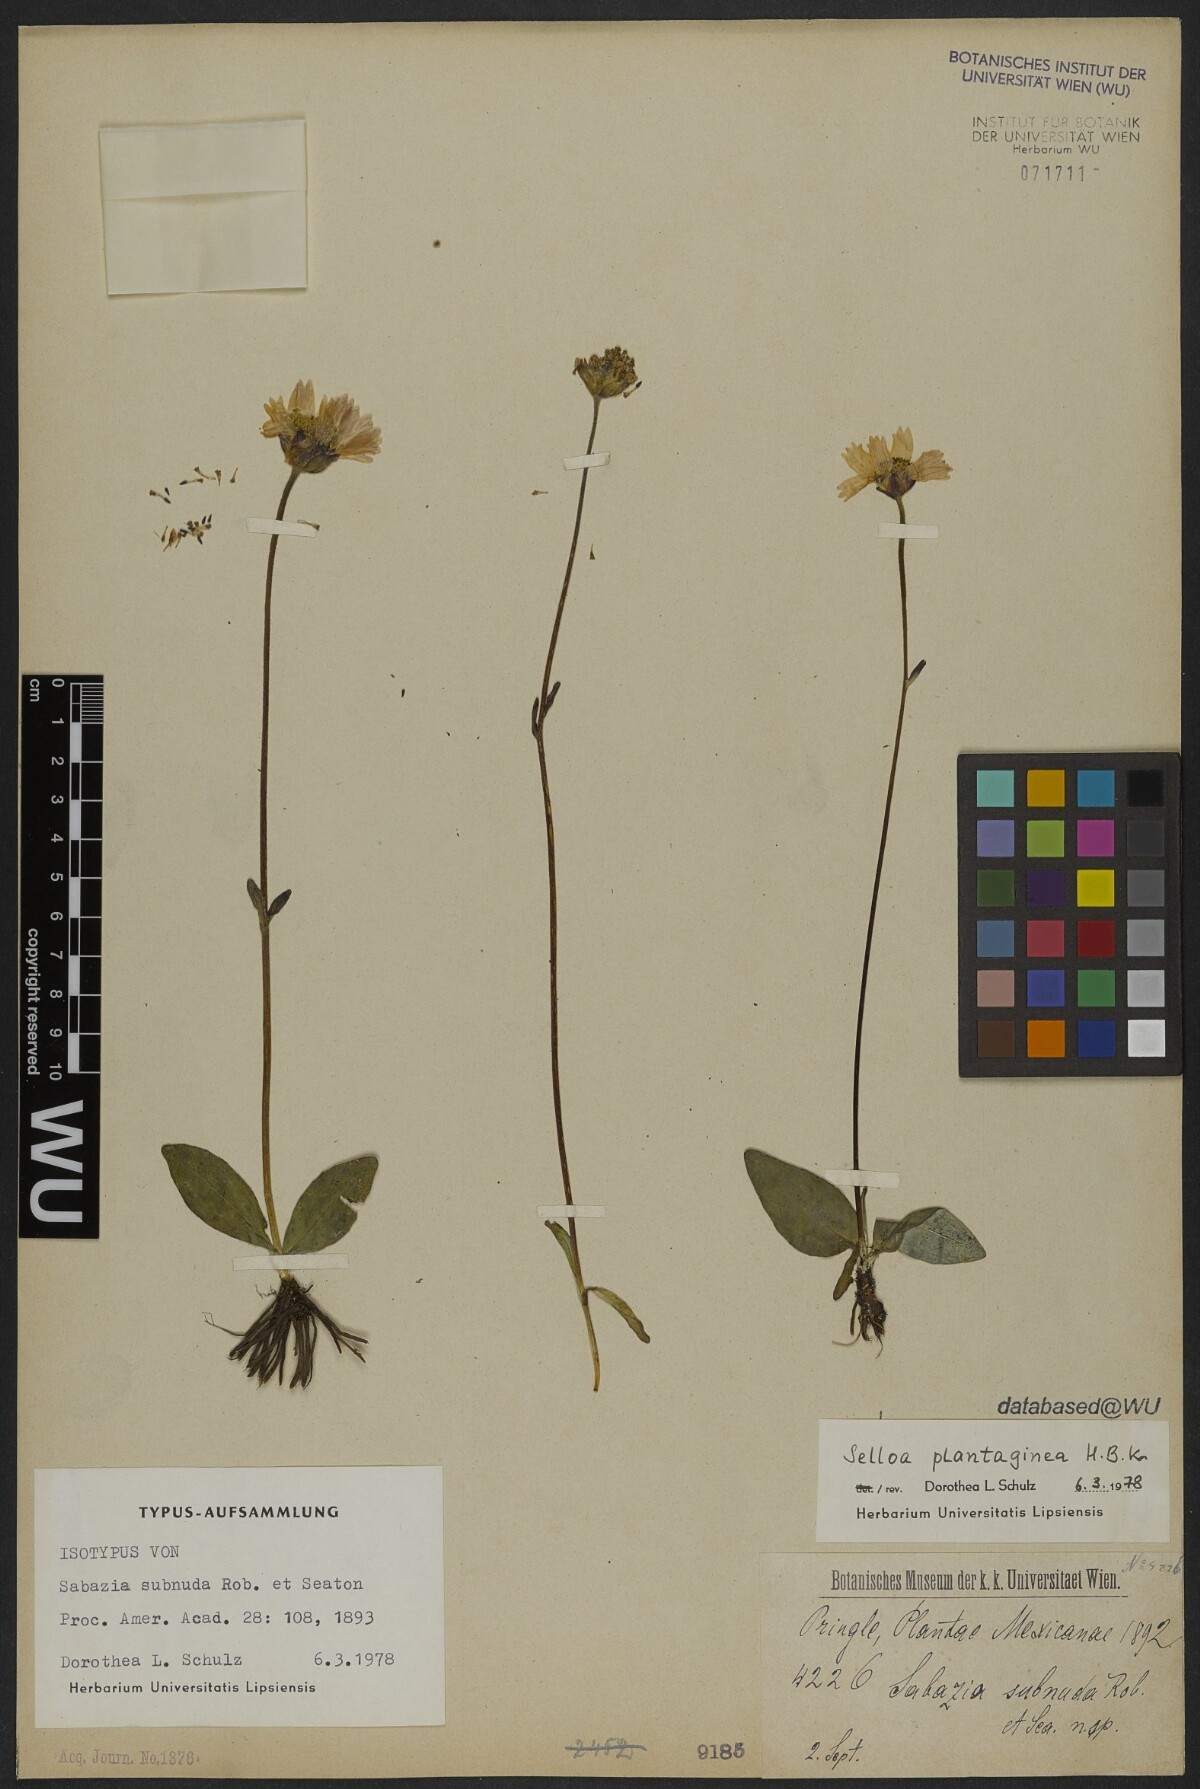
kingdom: Plantae
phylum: Tracheophyta
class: Magnoliopsida
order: Asterales
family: Asteraceae
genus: Selloa
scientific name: Selloa plantaginea
